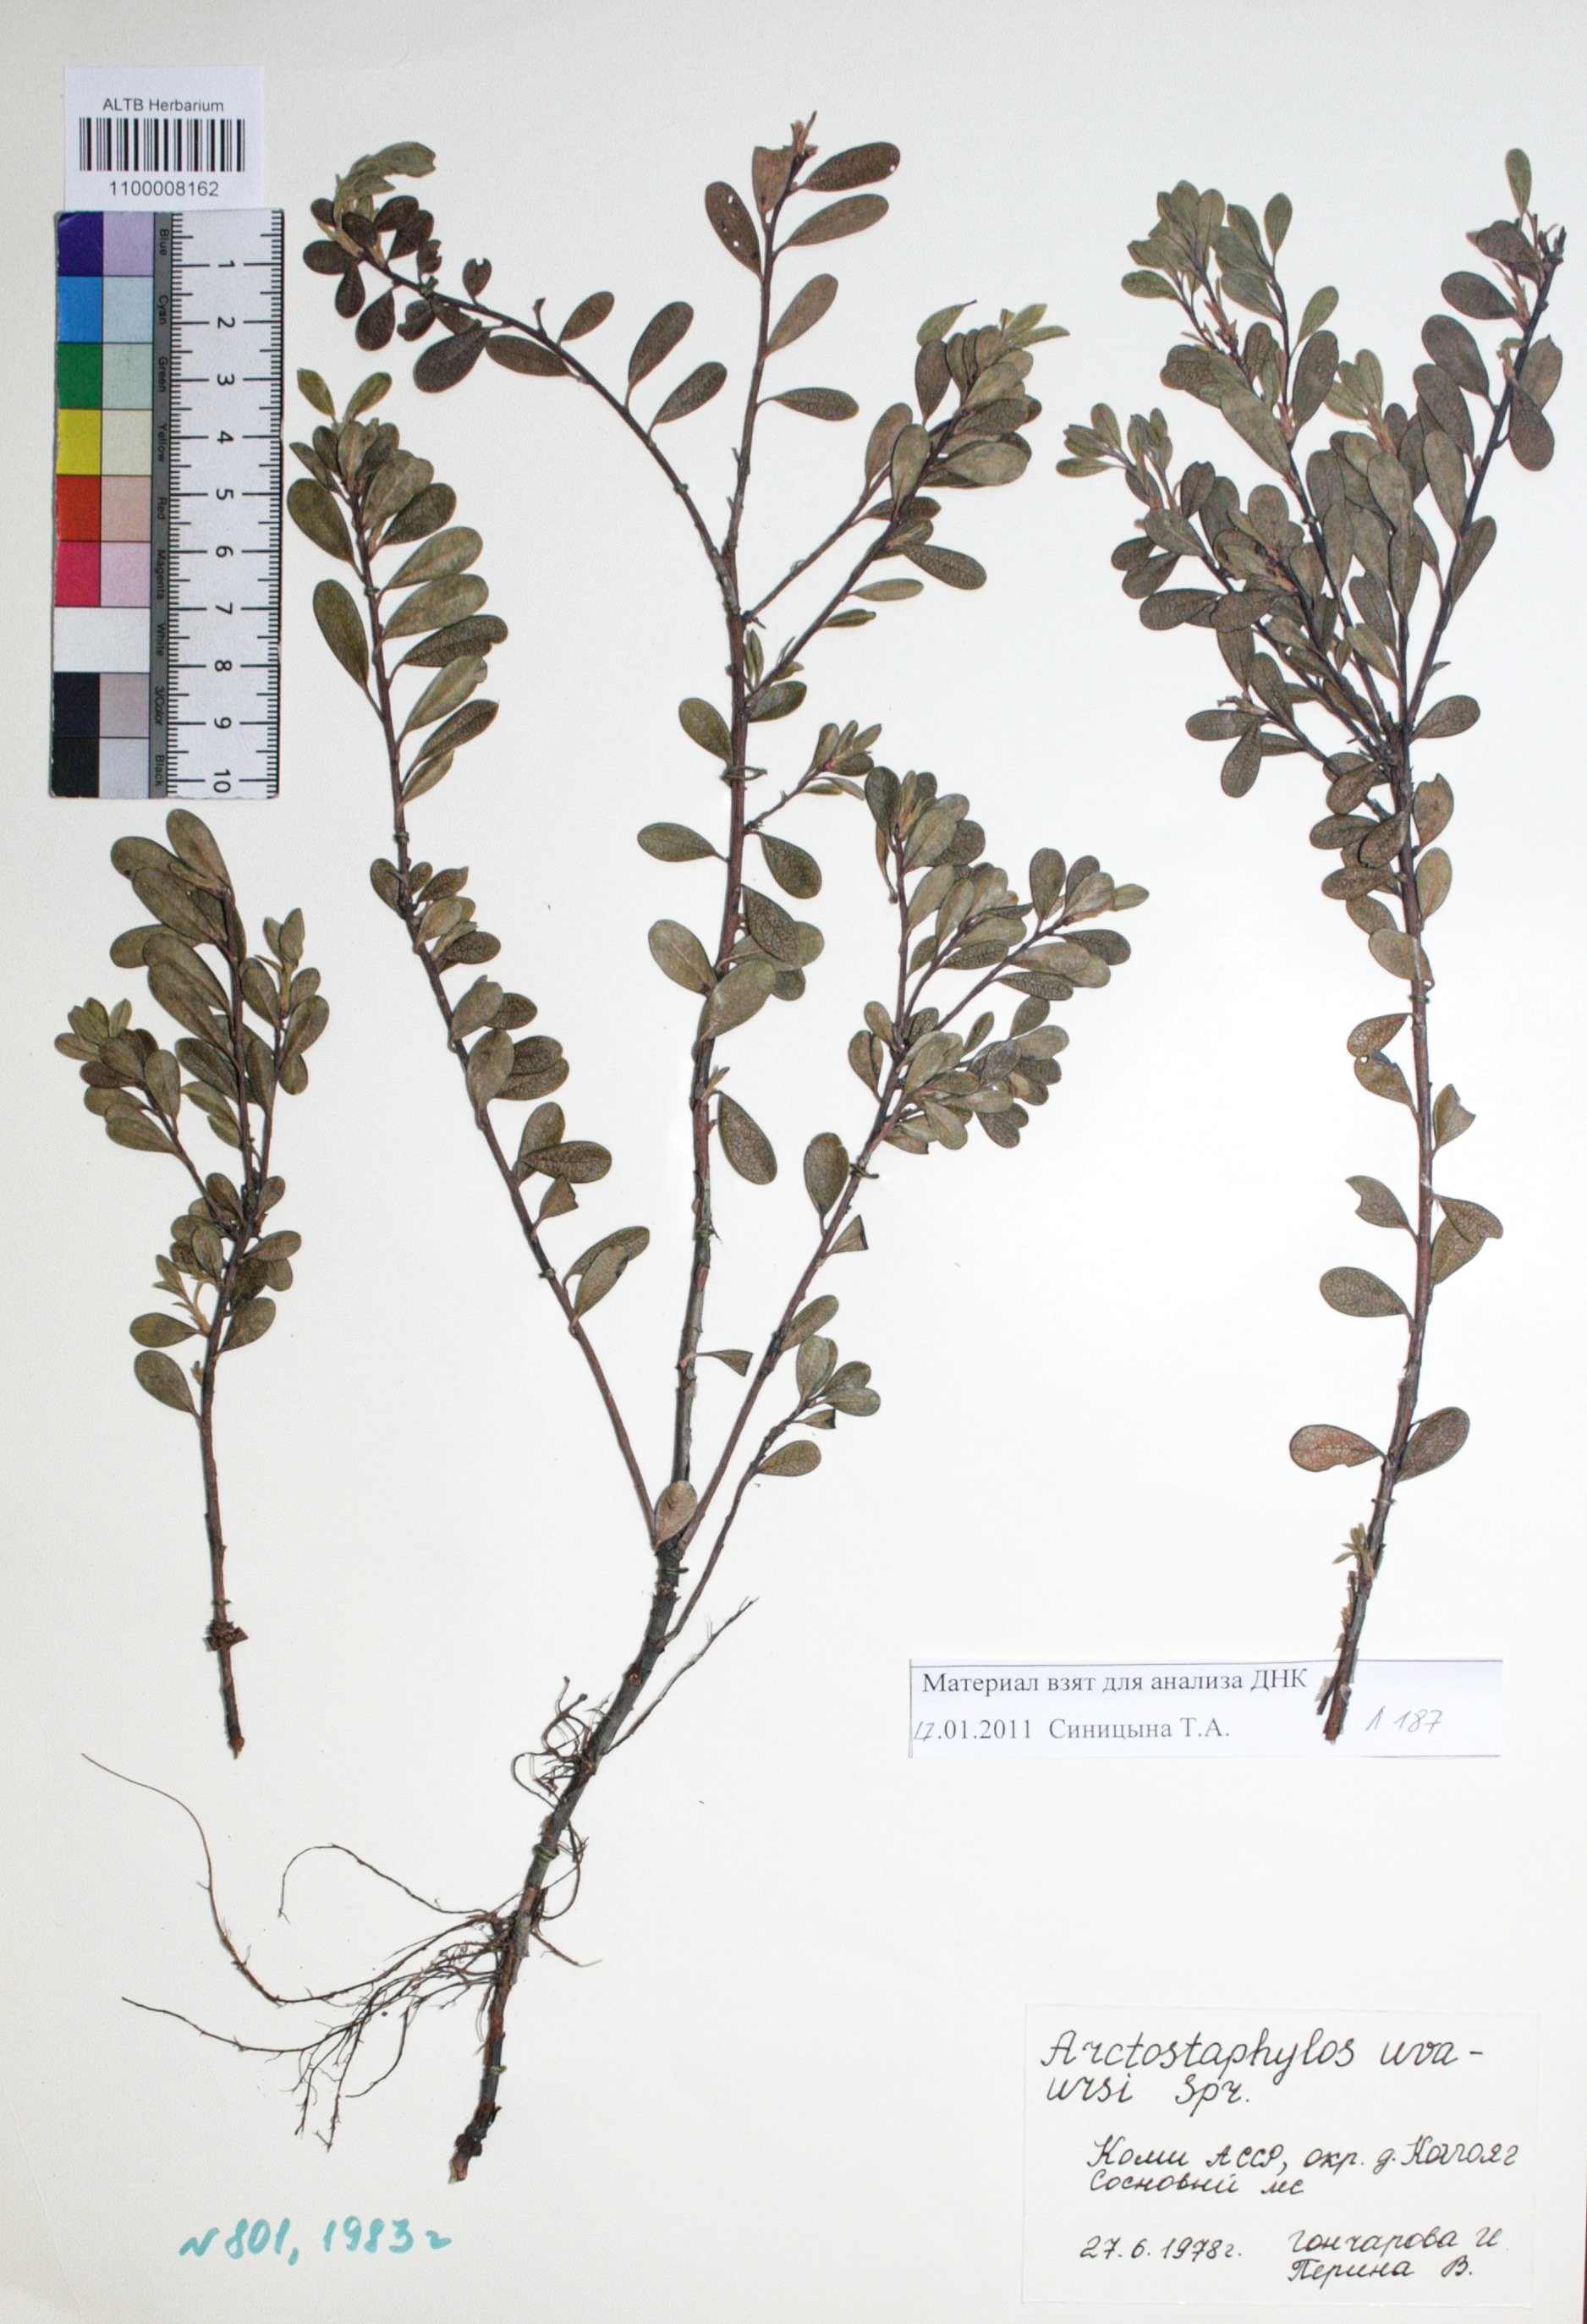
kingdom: Plantae
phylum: Tracheophyta
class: Magnoliopsida
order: Ericales
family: Ericaceae
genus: Arctostaphylos
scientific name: Arctostaphylos uva-ursi
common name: Bearberry
